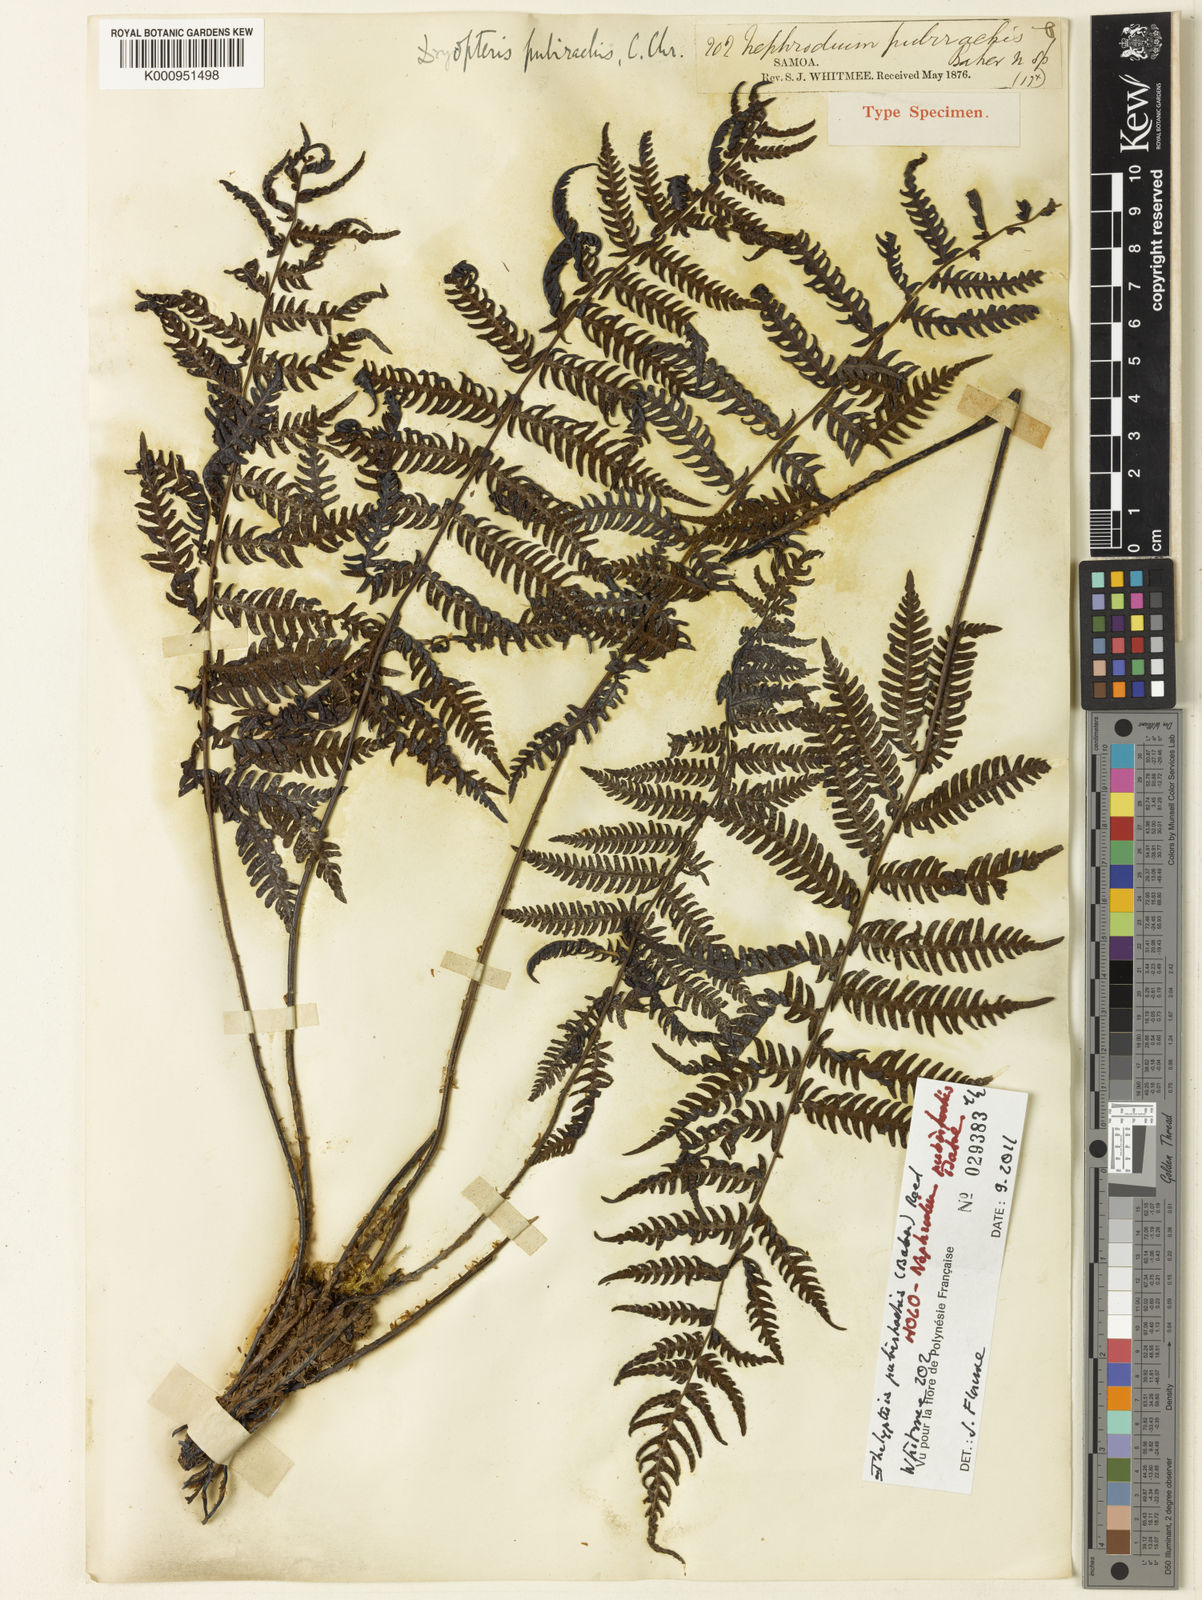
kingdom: Plantae
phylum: Tracheophyta
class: Polypodiopsida
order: Polypodiales
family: Thelypteridaceae
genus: Coryphopteris
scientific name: Coryphopteris pubirachis
